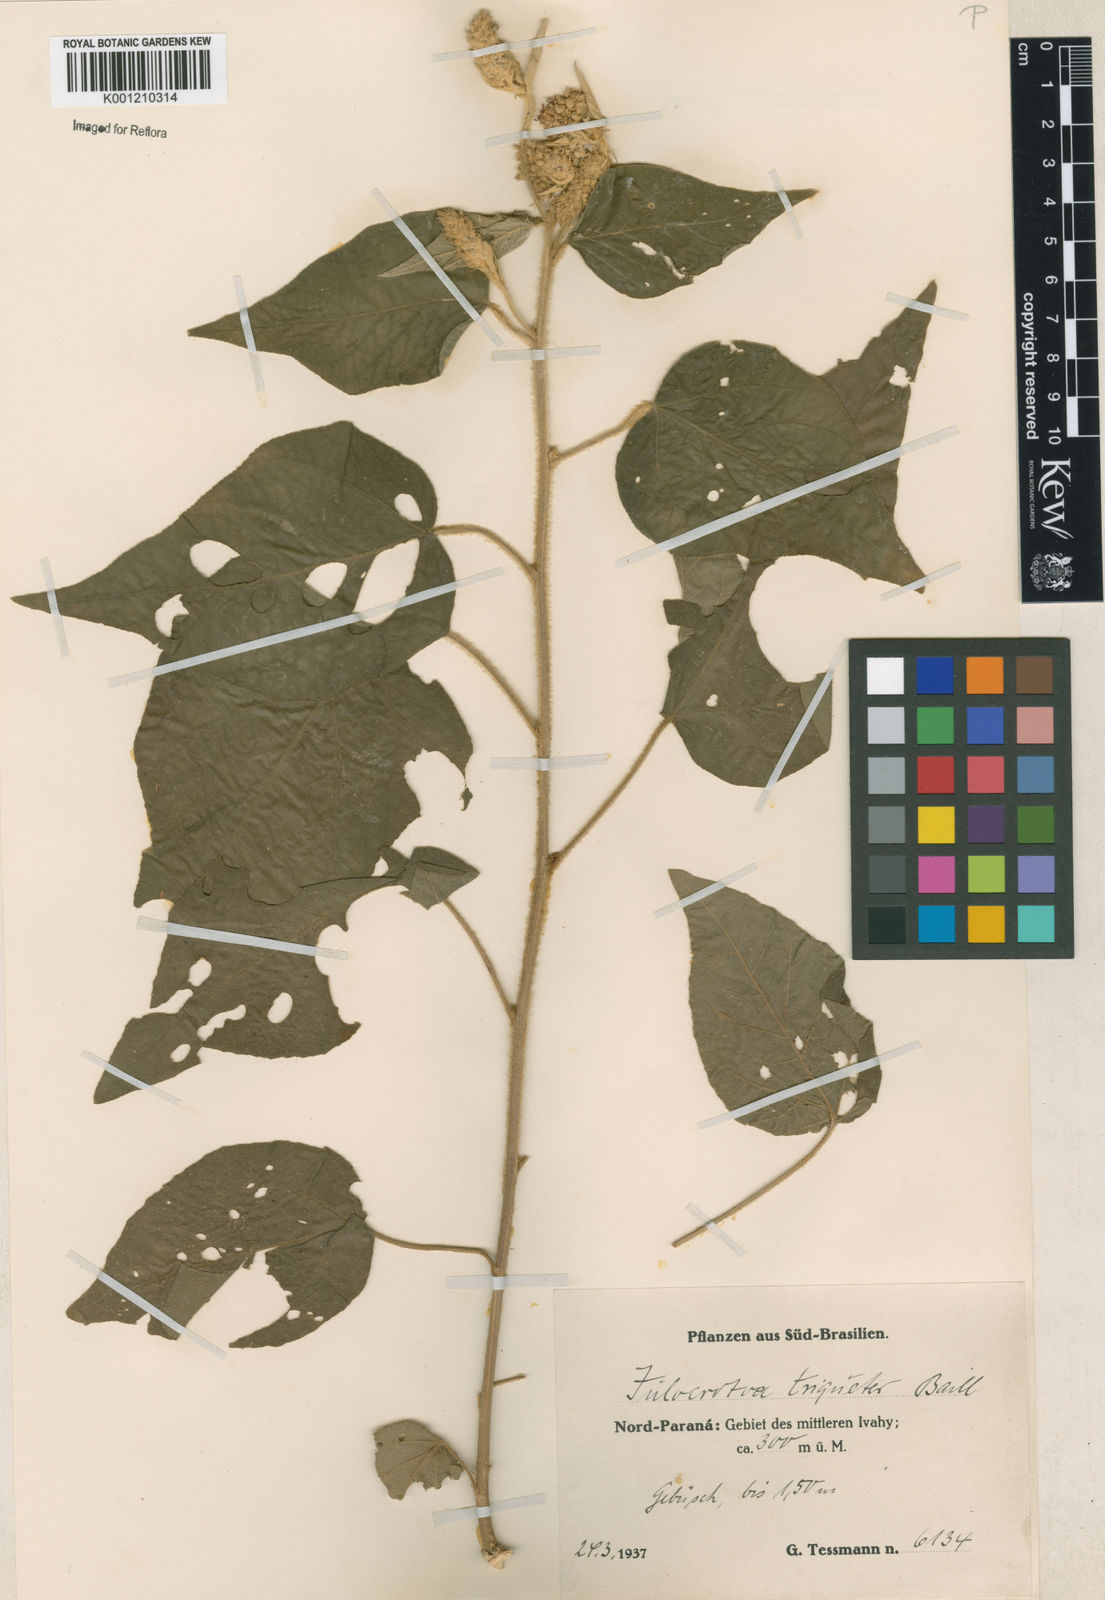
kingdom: Plantae
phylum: Tracheophyta
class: Magnoliopsida
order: Malpighiales
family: Euphorbiaceae
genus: Croton
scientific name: Croton triqueter
